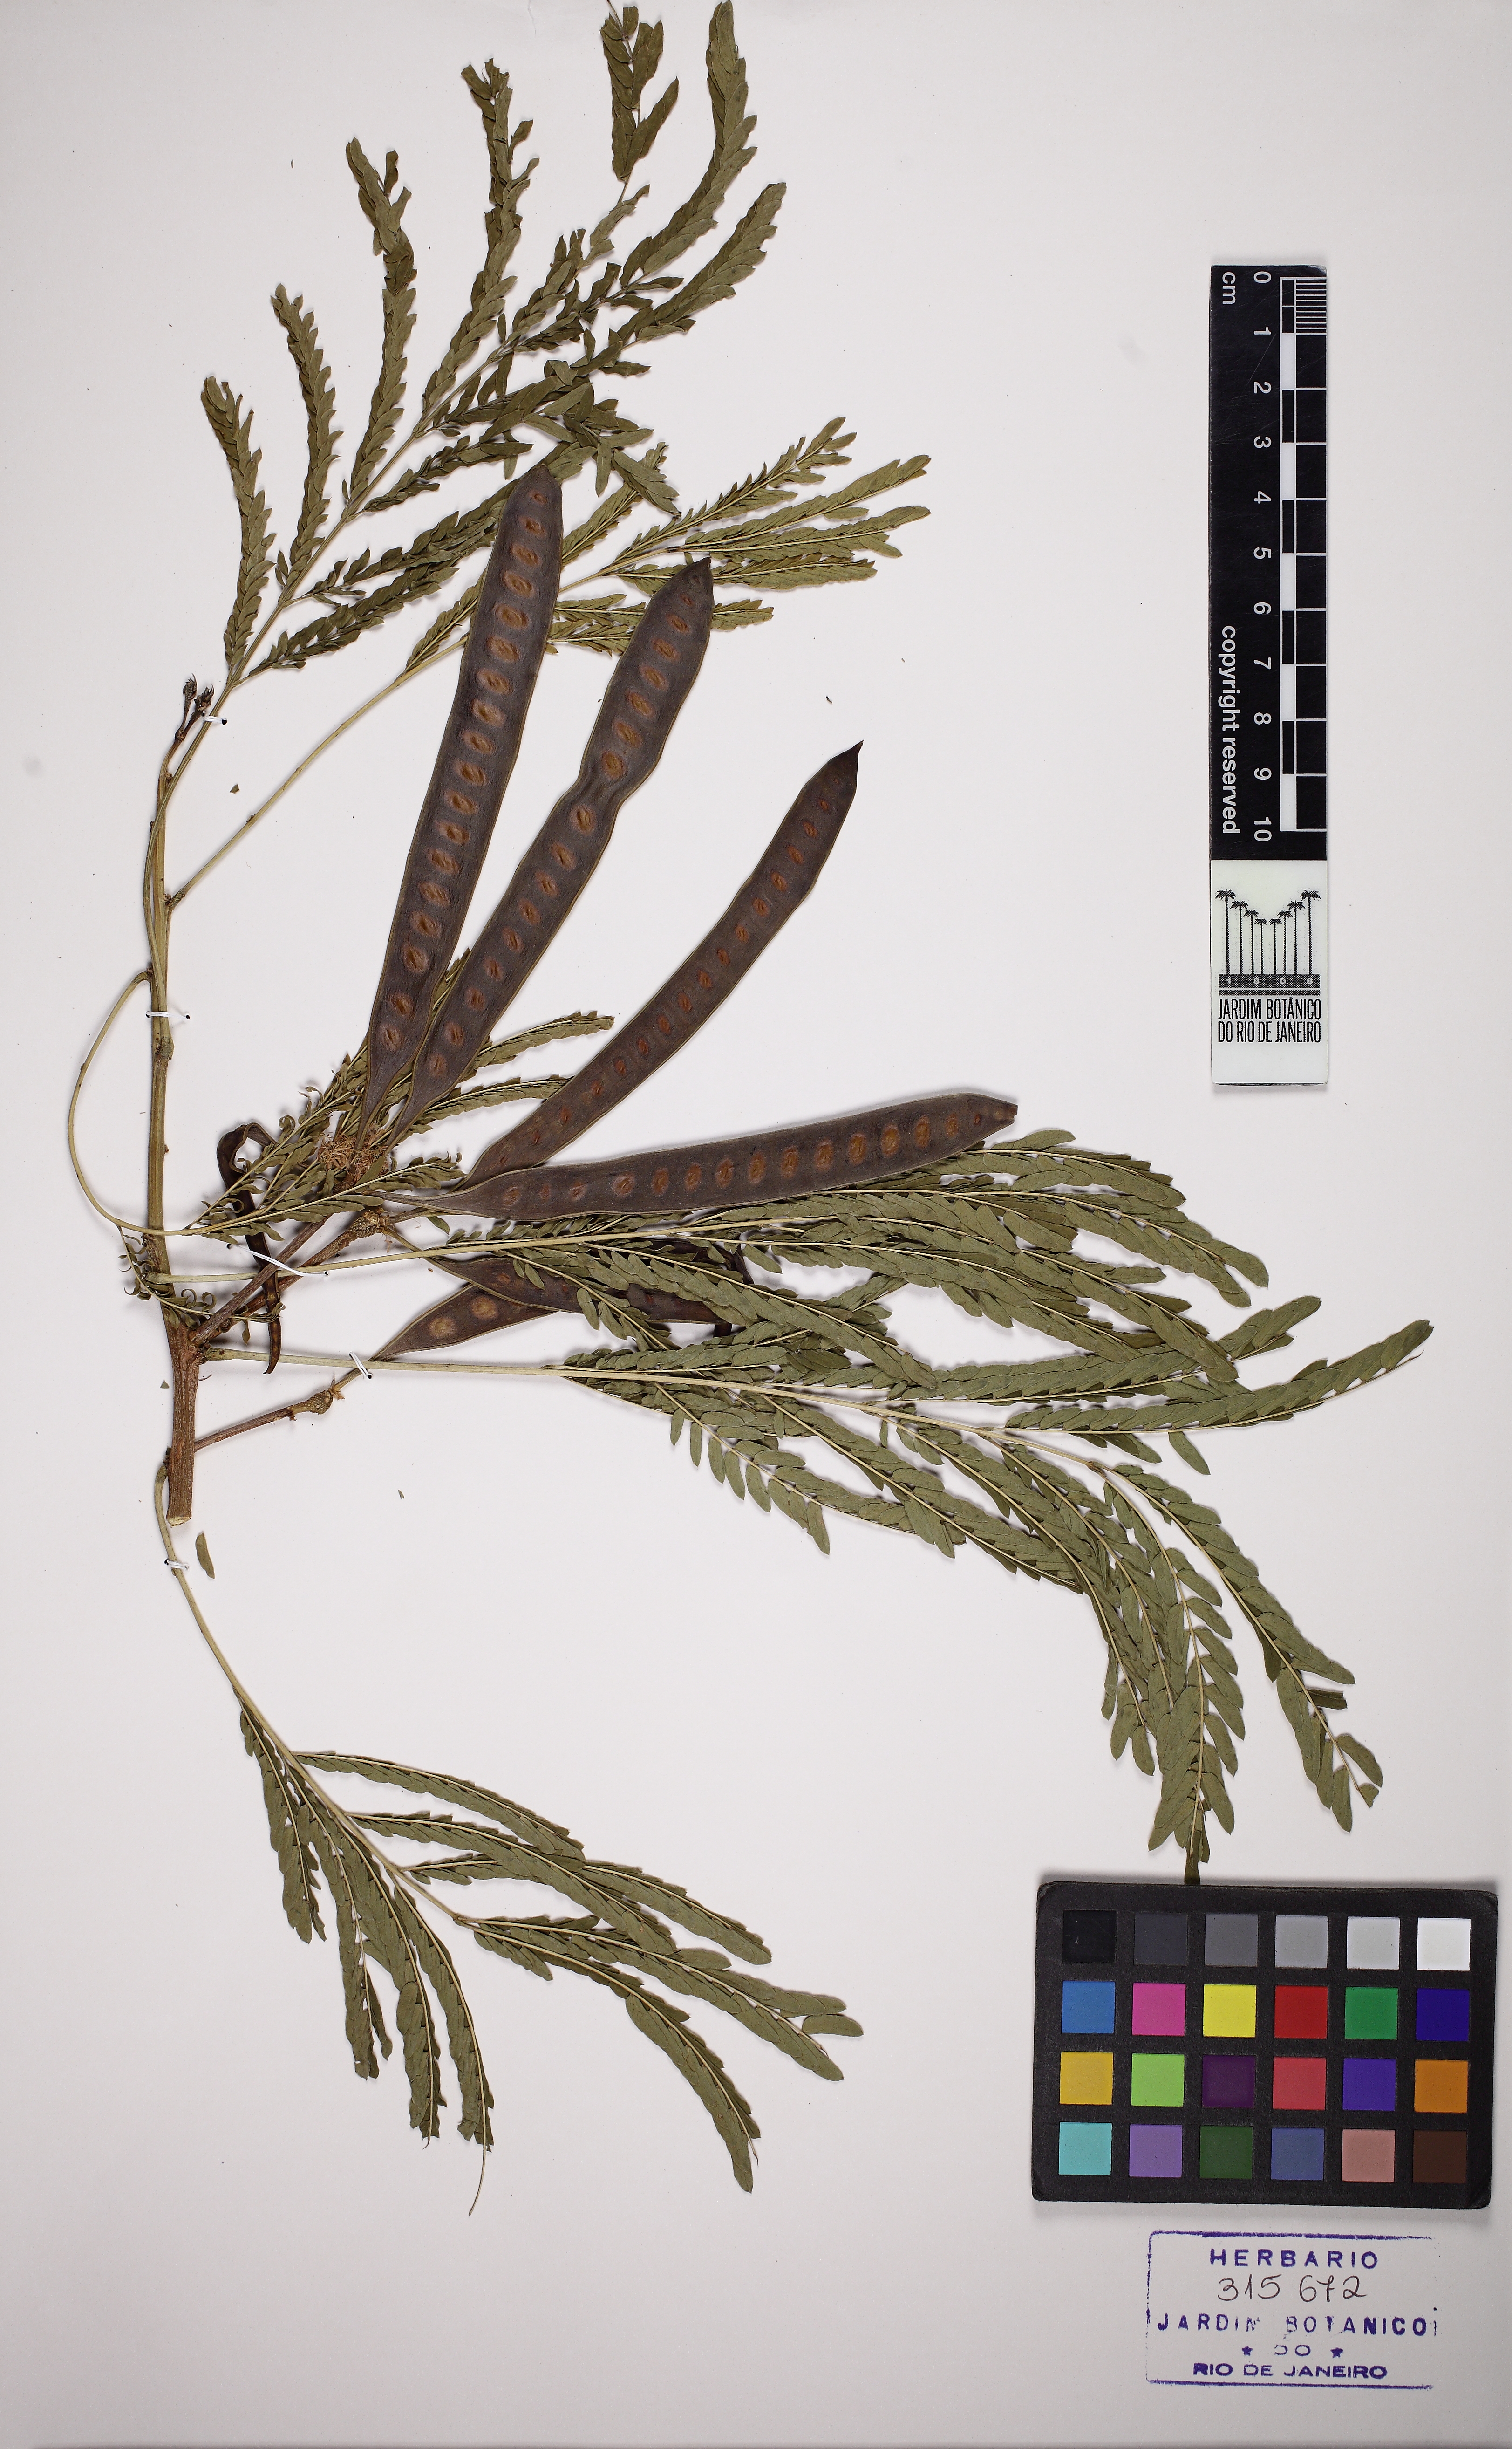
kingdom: Plantae
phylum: Tracheophyta
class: Magnoliopsida
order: Fabales
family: Fabaceae
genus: Leucaena
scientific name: Leucaena
